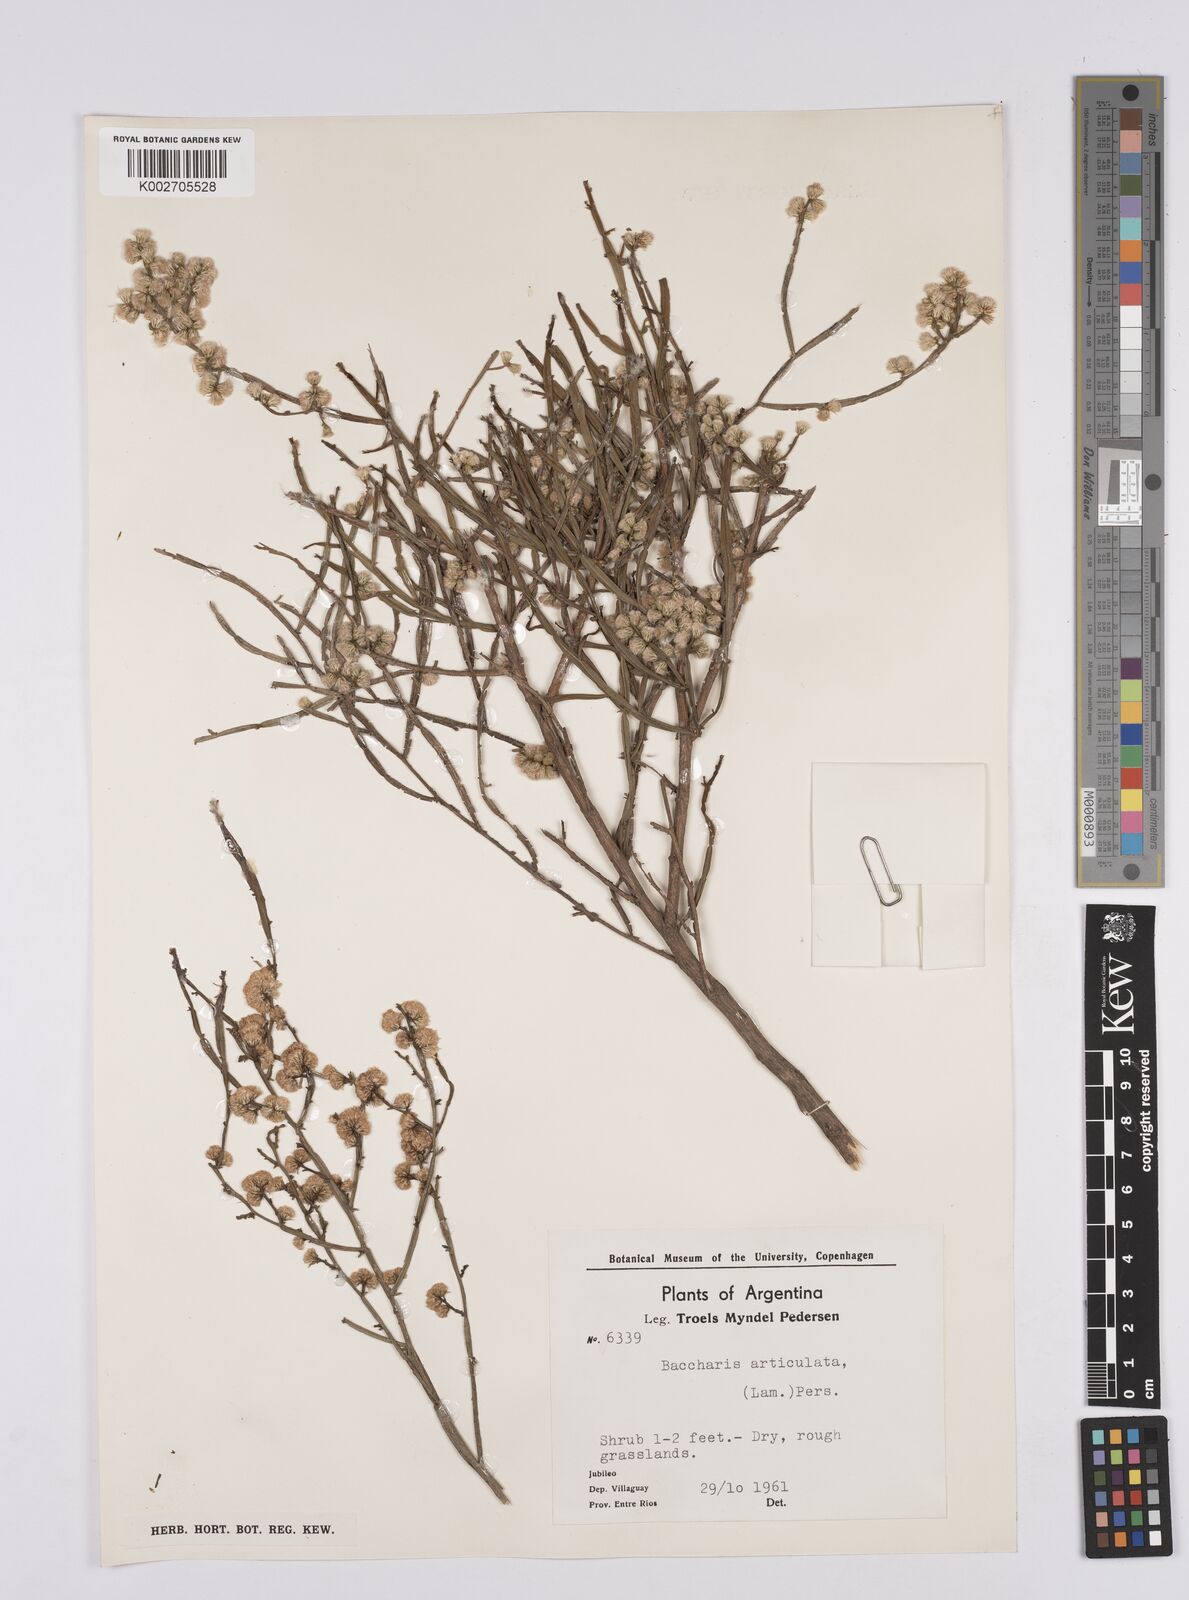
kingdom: Plantae
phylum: Tracheophyta
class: Magnoliopsida
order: Asterales
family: Asteraceae
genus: Baccharis
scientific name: Baccharis articulata
